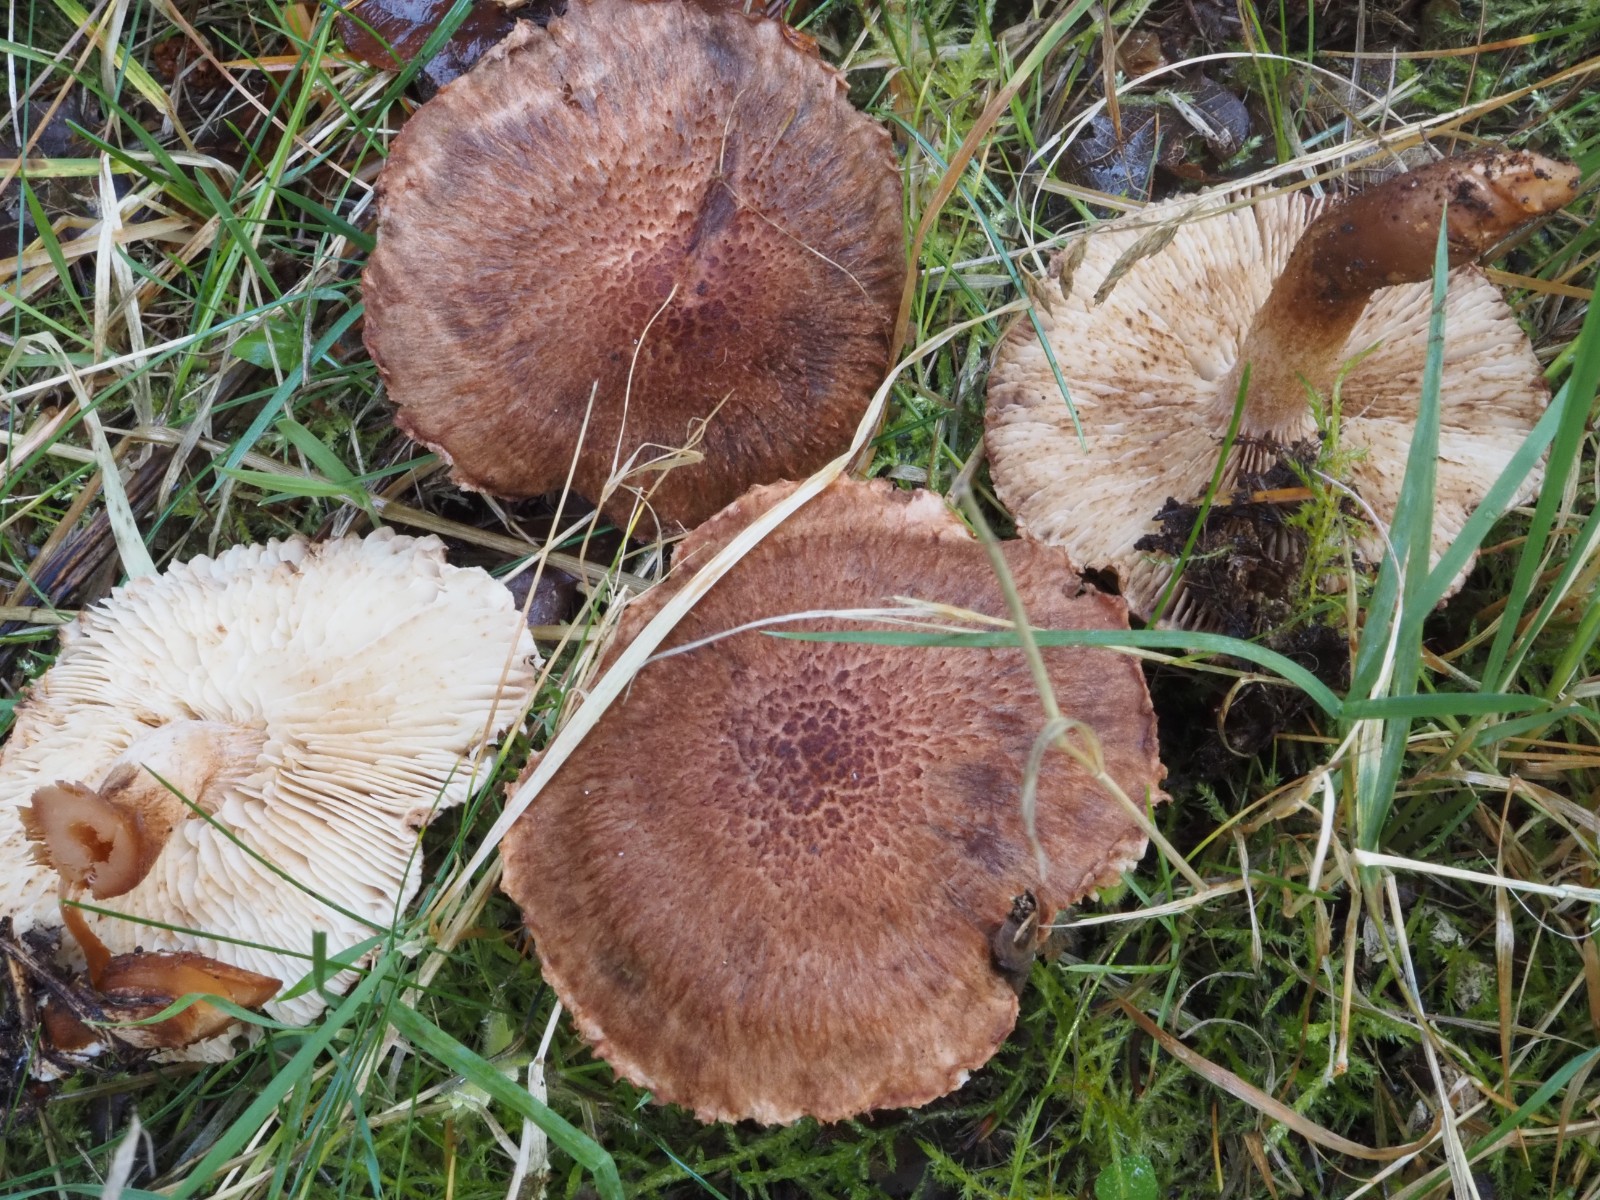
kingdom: Fungi
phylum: Basidiomycota
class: Agaricomycetes
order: Agaricales
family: Tricholomataceae
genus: Tricholoma
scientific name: Tricholoma vaccinum
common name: ko-ridderhat
